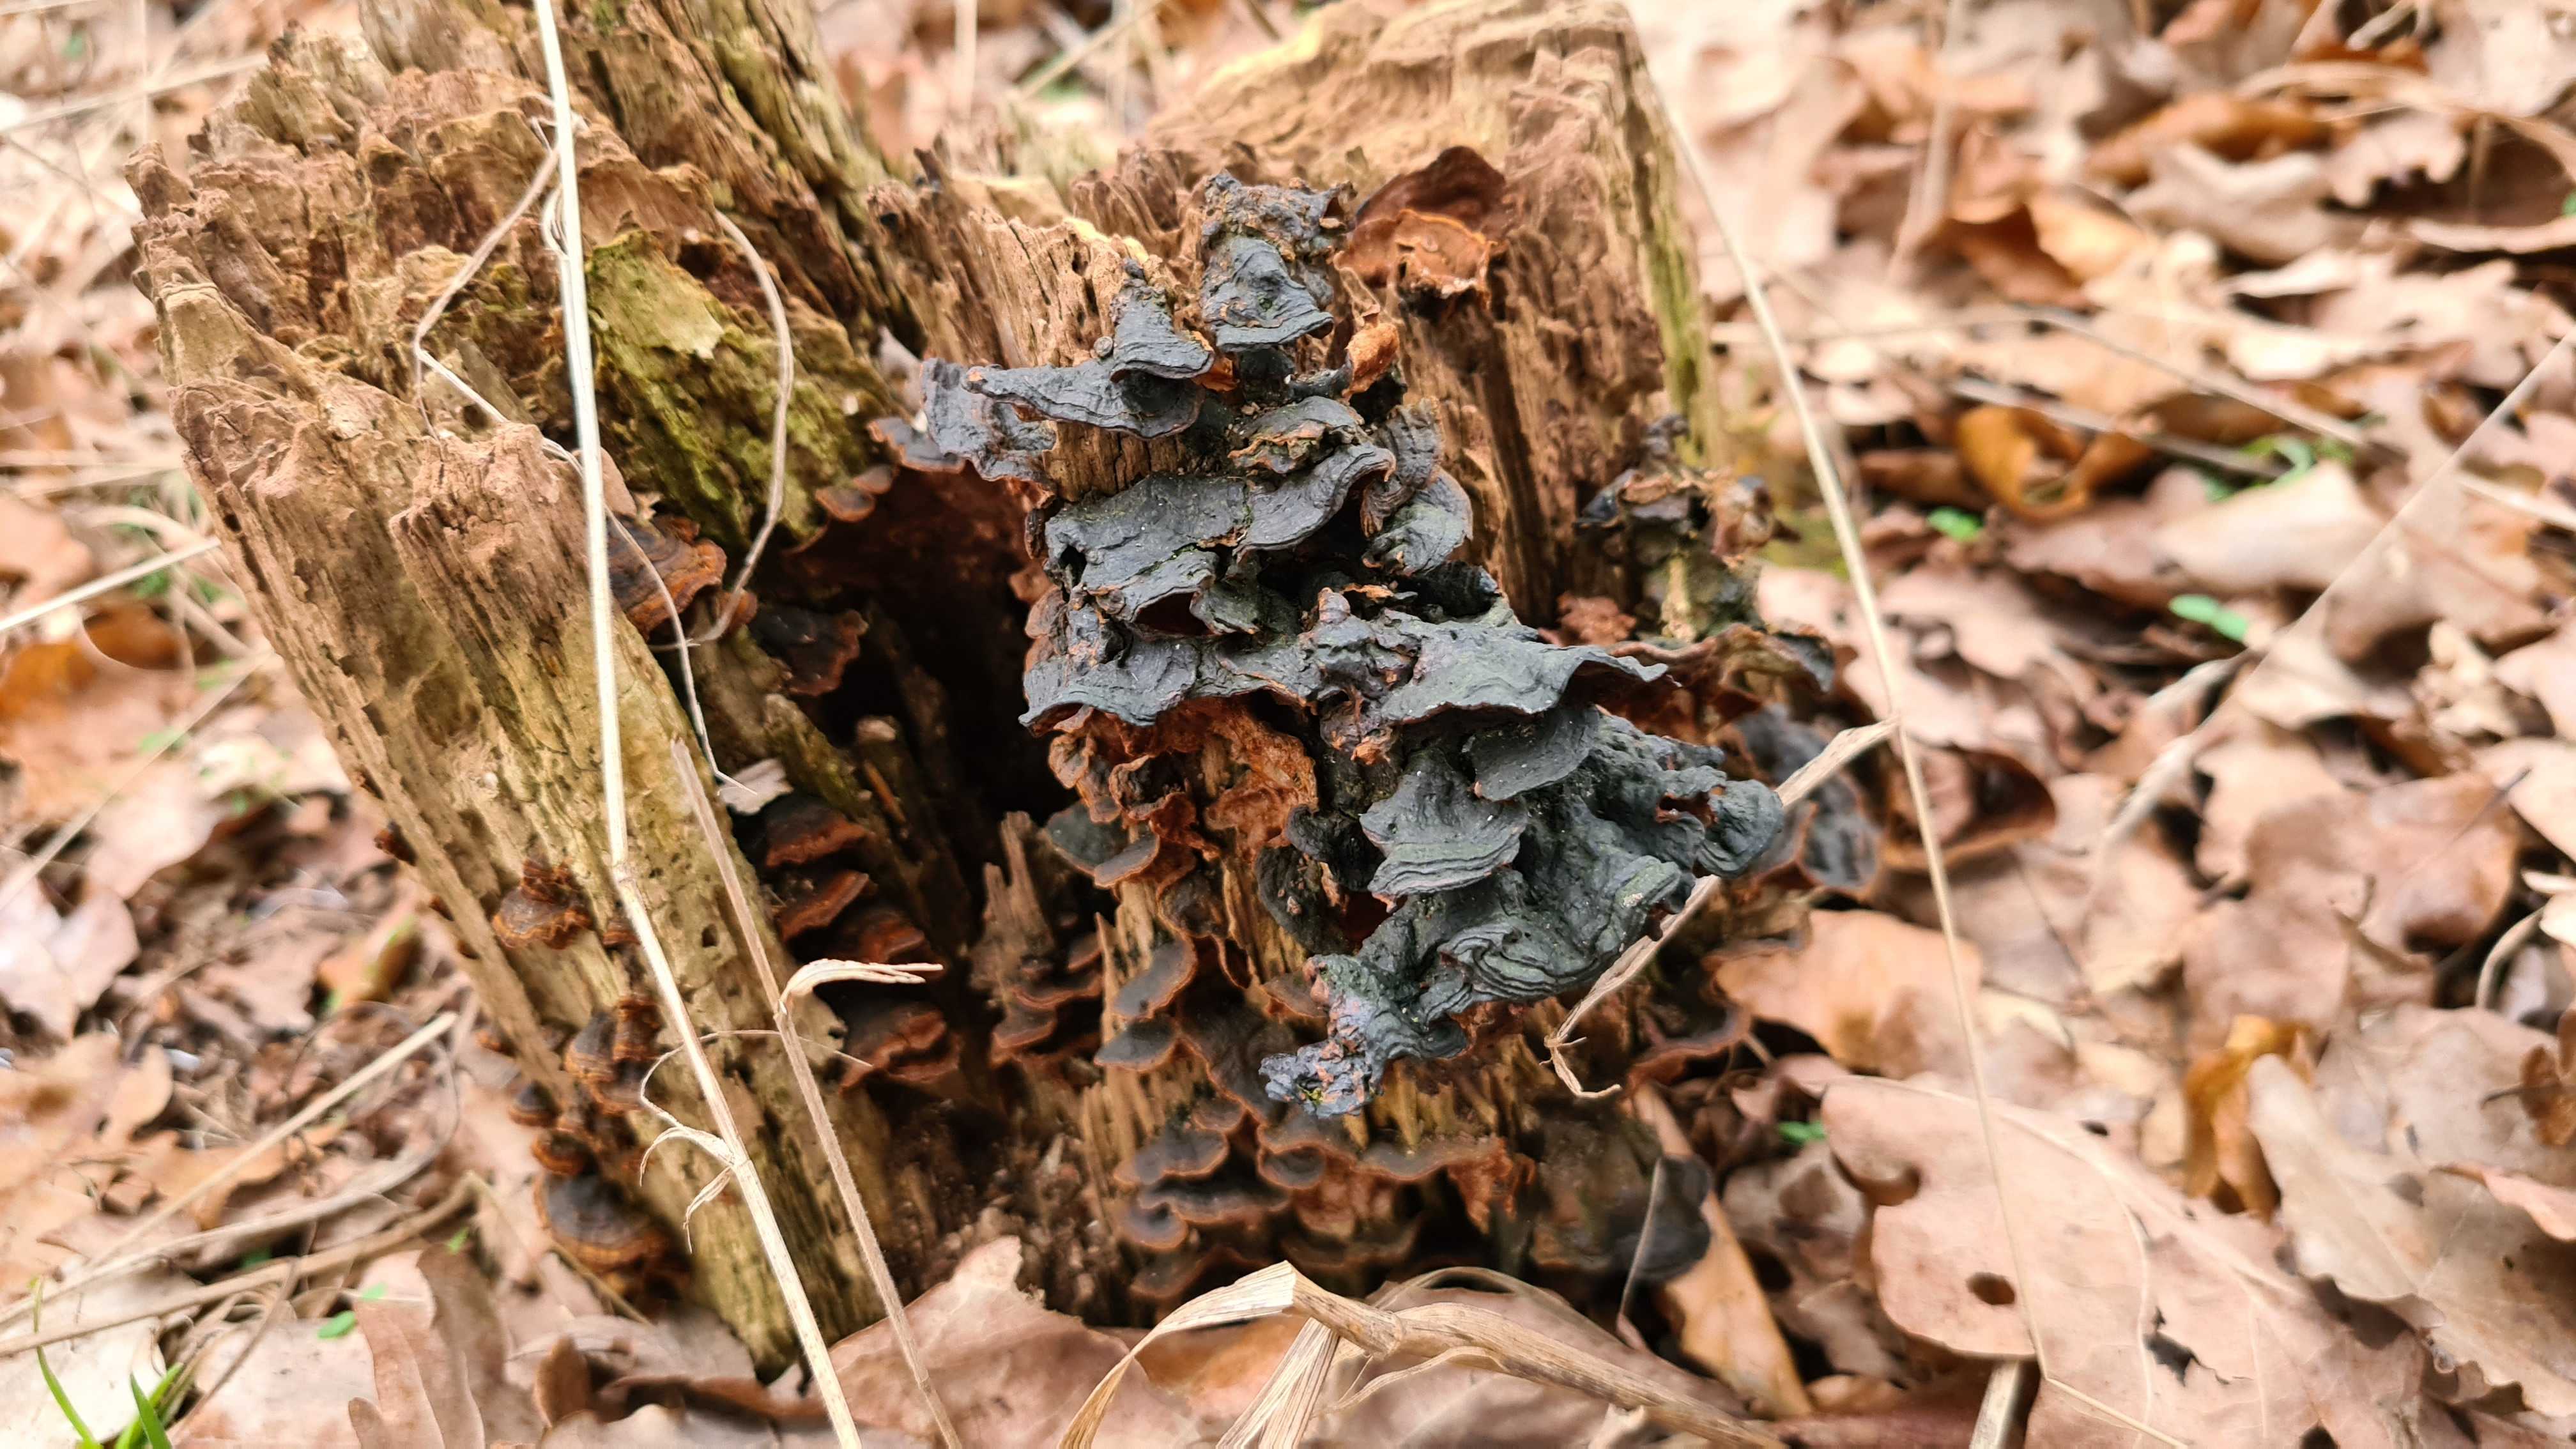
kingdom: Fungi
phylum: Basidiomycota
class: Agaricomycetes
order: Hymenochaetales
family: Hymenochaetaceae
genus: Hymenochaete
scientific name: Hymenochaete rubiginosa
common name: stiv ruslædersvamp
